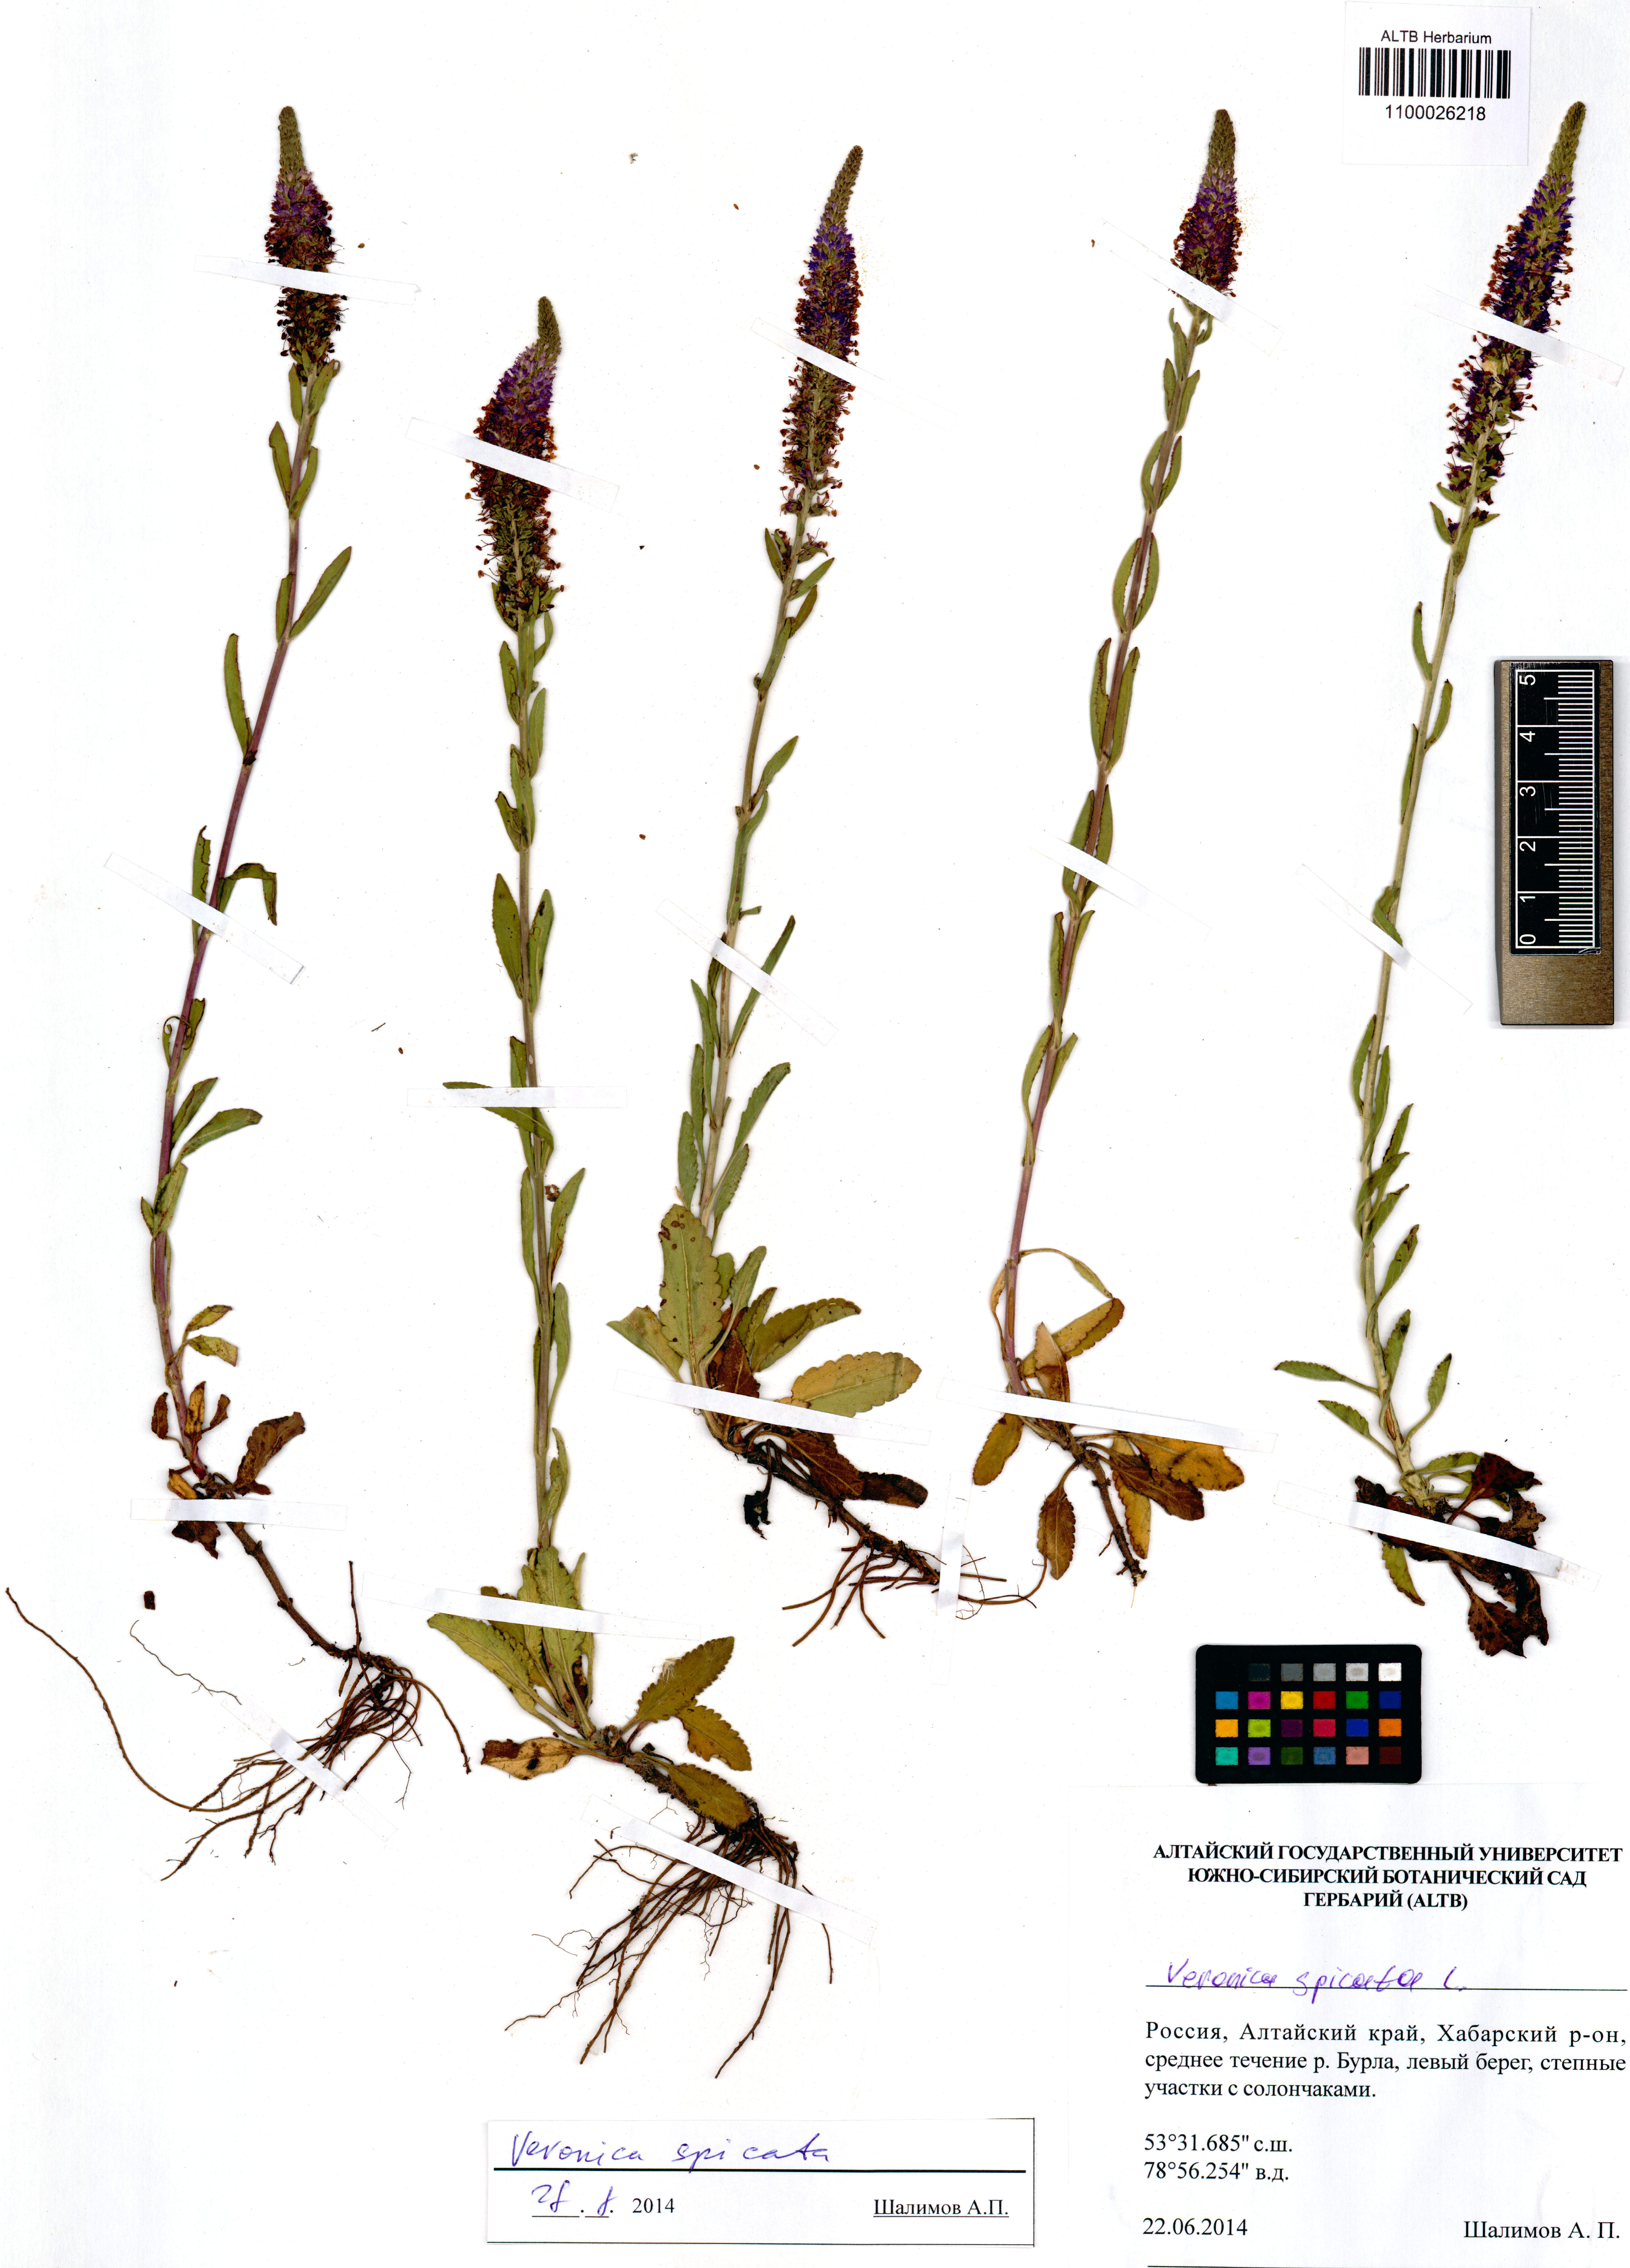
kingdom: Plantae
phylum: Tracheophyta
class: Magnoliopsida
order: Lamiales
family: Plantaginaceae
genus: Veronica
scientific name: Veronica spicata
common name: Spiked speedwell
